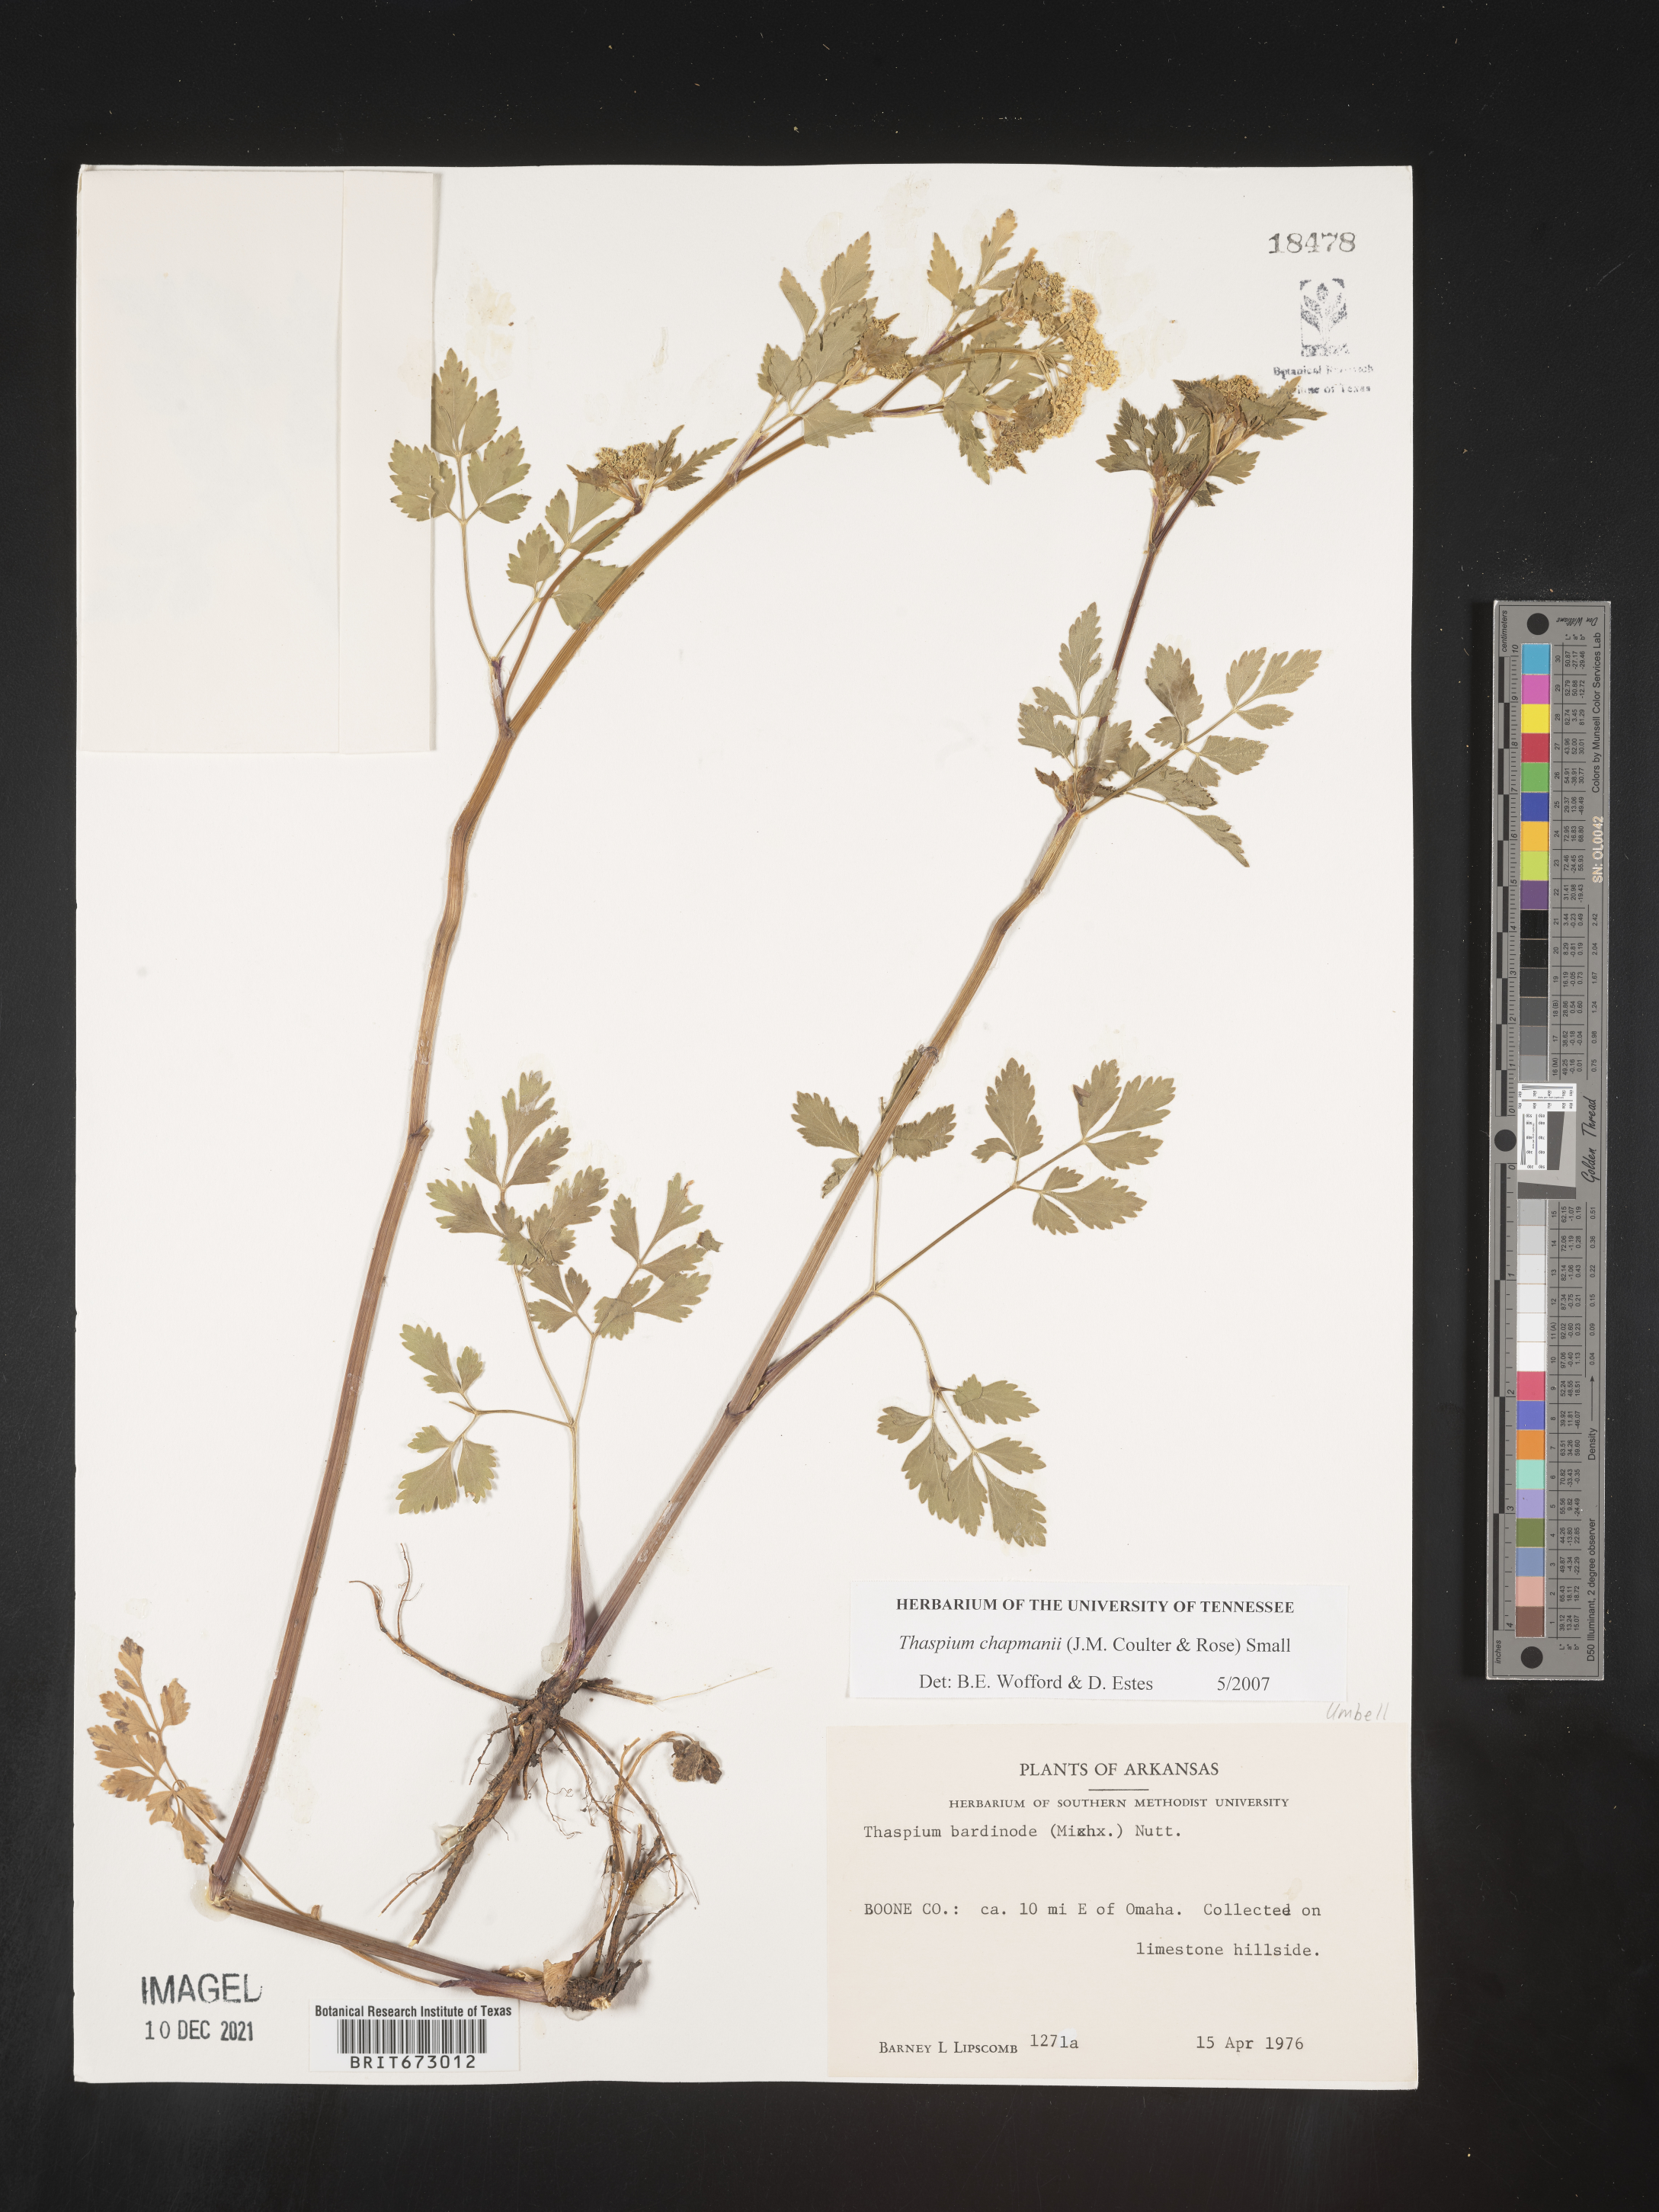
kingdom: Plantae
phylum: Tracheophyta
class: Magnoliopsida
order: Apiales
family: Apiaceae
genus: Thaspium
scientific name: Thaspium barbinode
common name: Bearded meadow-parsnip
